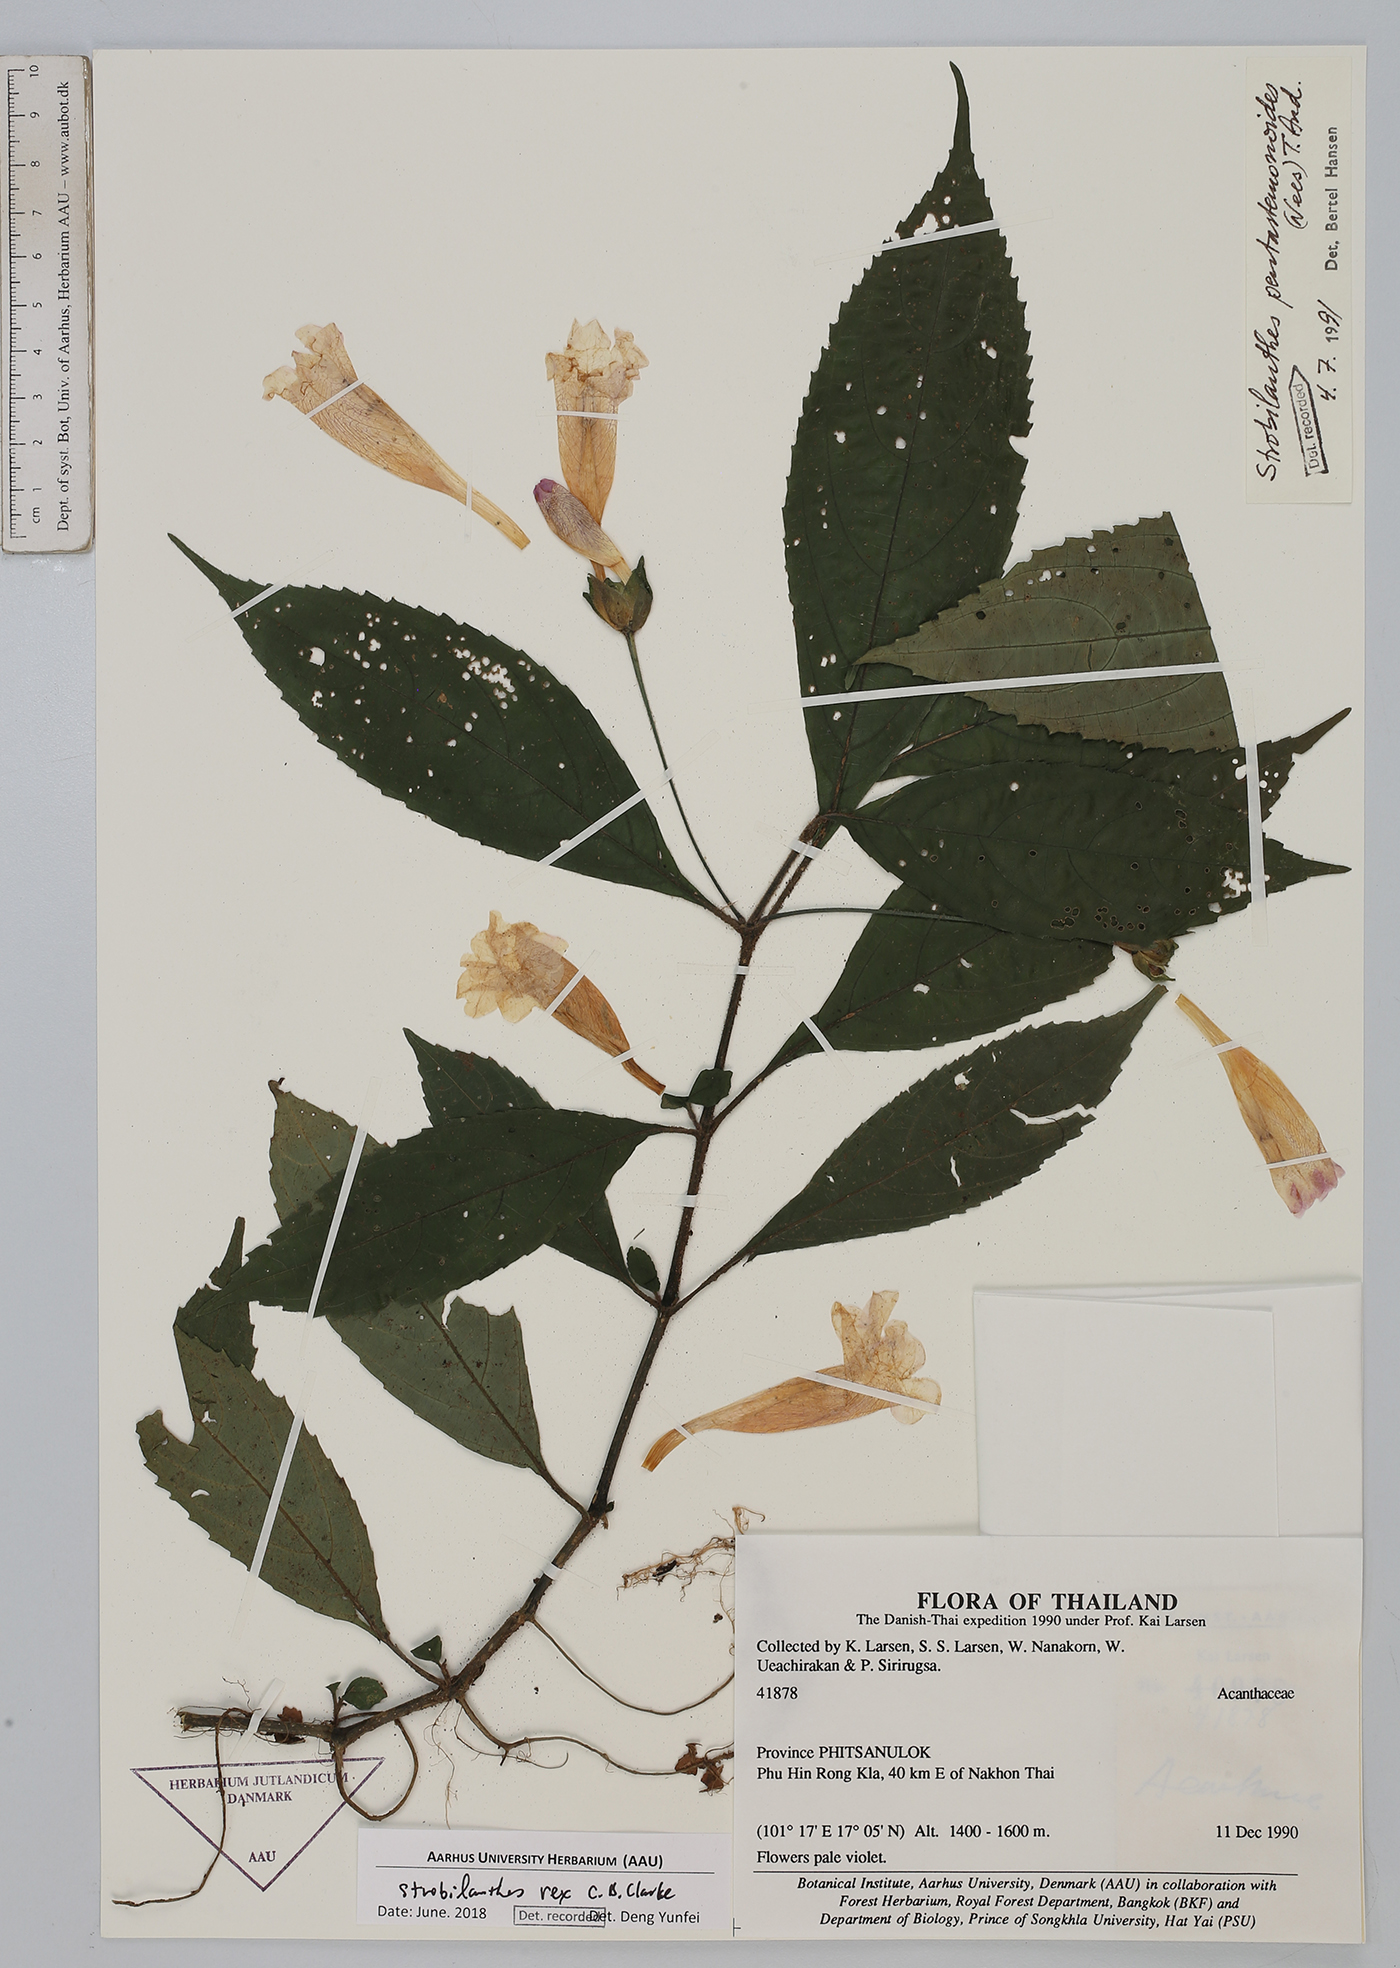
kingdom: Plantae
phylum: Tracheophyta
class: Magnoliopsida
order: Lamiales
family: Acanthaceae
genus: Strobilanthes
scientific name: Strobilanthes dimorphotricha
